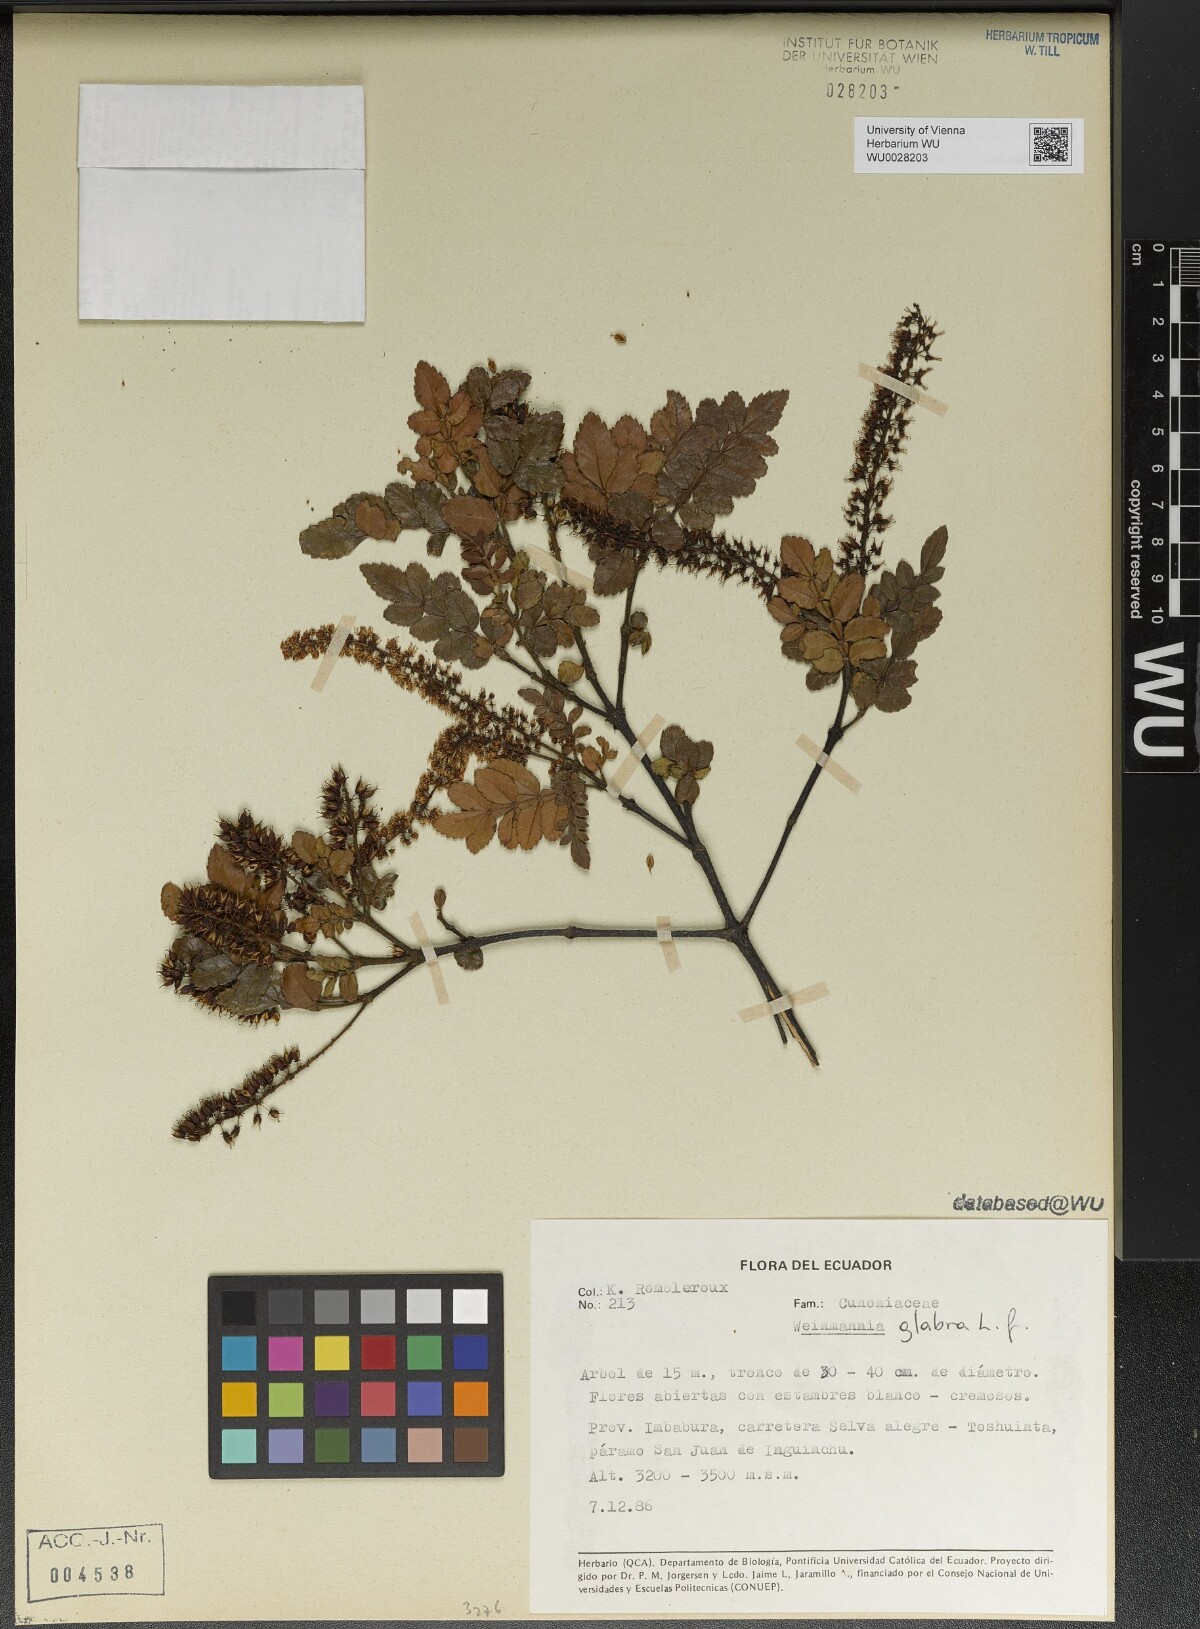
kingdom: Plantae
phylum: Tracheophyta
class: Magnoliopsida
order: Oxalidales
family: Cunoniaceae
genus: Weinmannia
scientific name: Weinmannia pinnata
